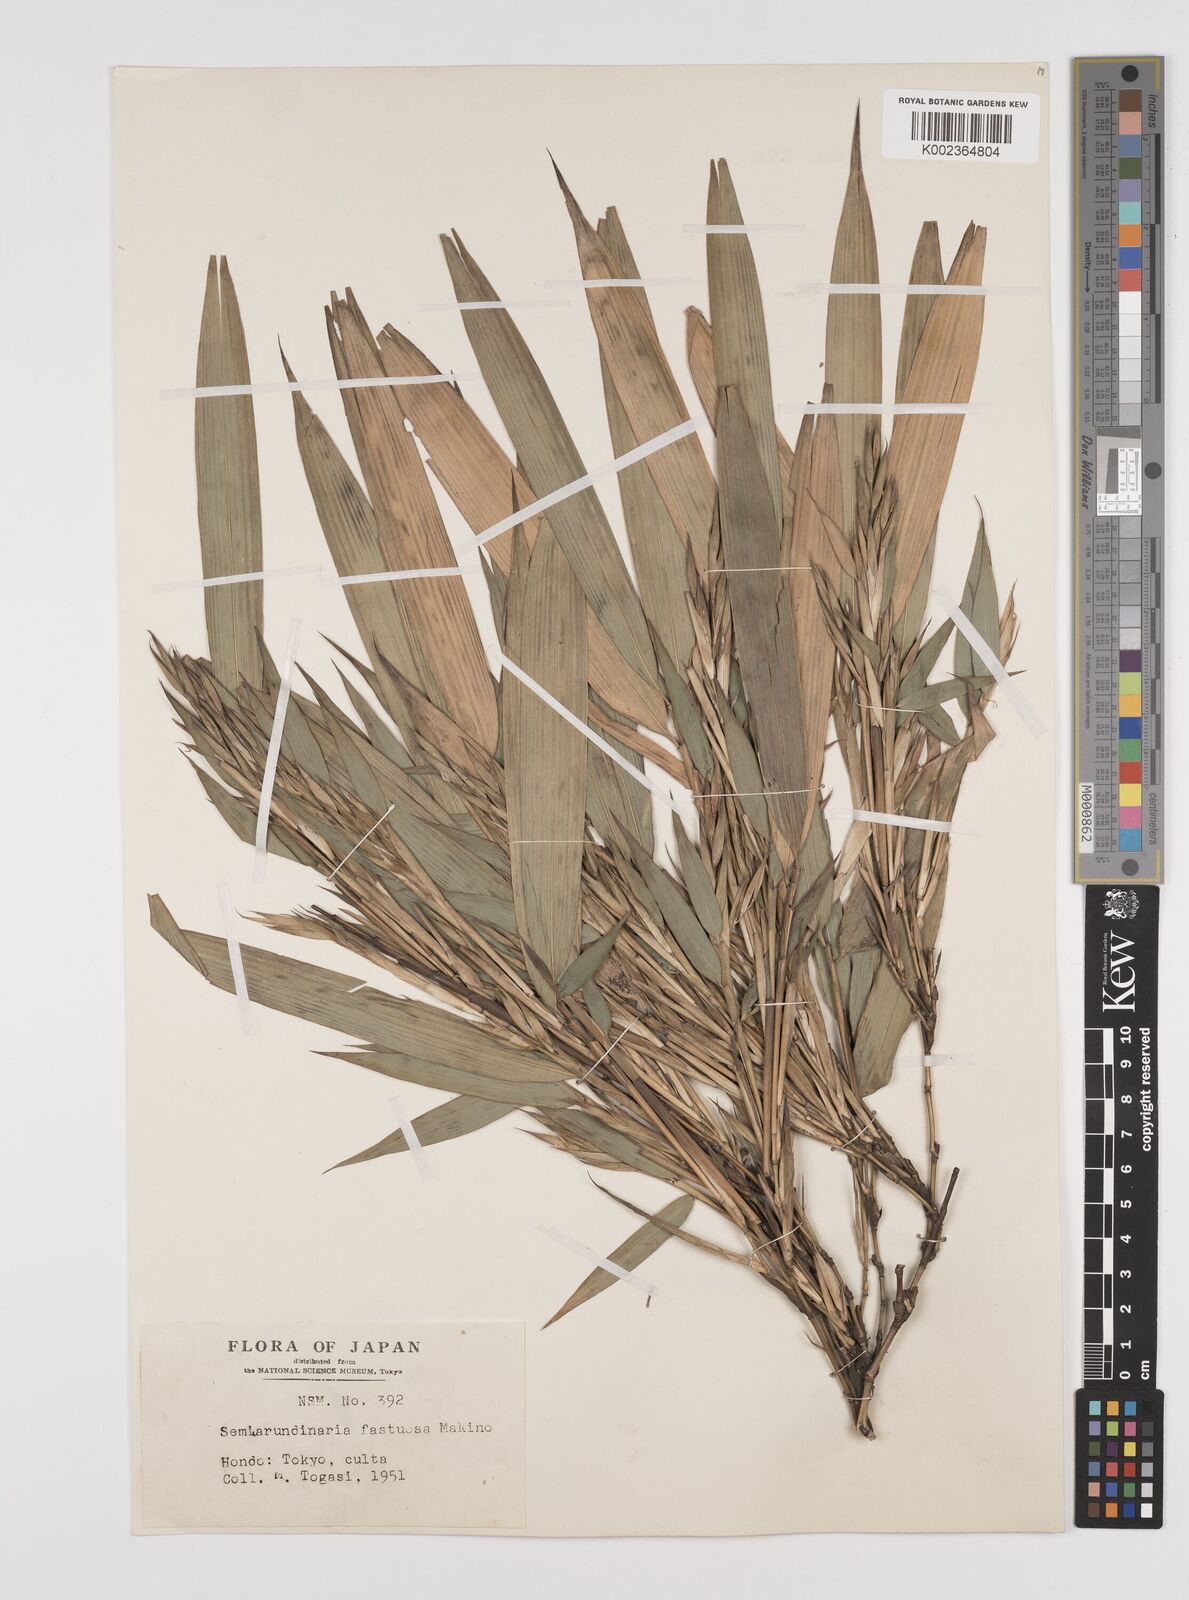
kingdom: Plantae
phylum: Tracheophyta
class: Liliopsida
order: Poales
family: Poaceae
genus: Semiarundinaria
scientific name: Semiarundinaria fastuosa
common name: Narihira bamboo
